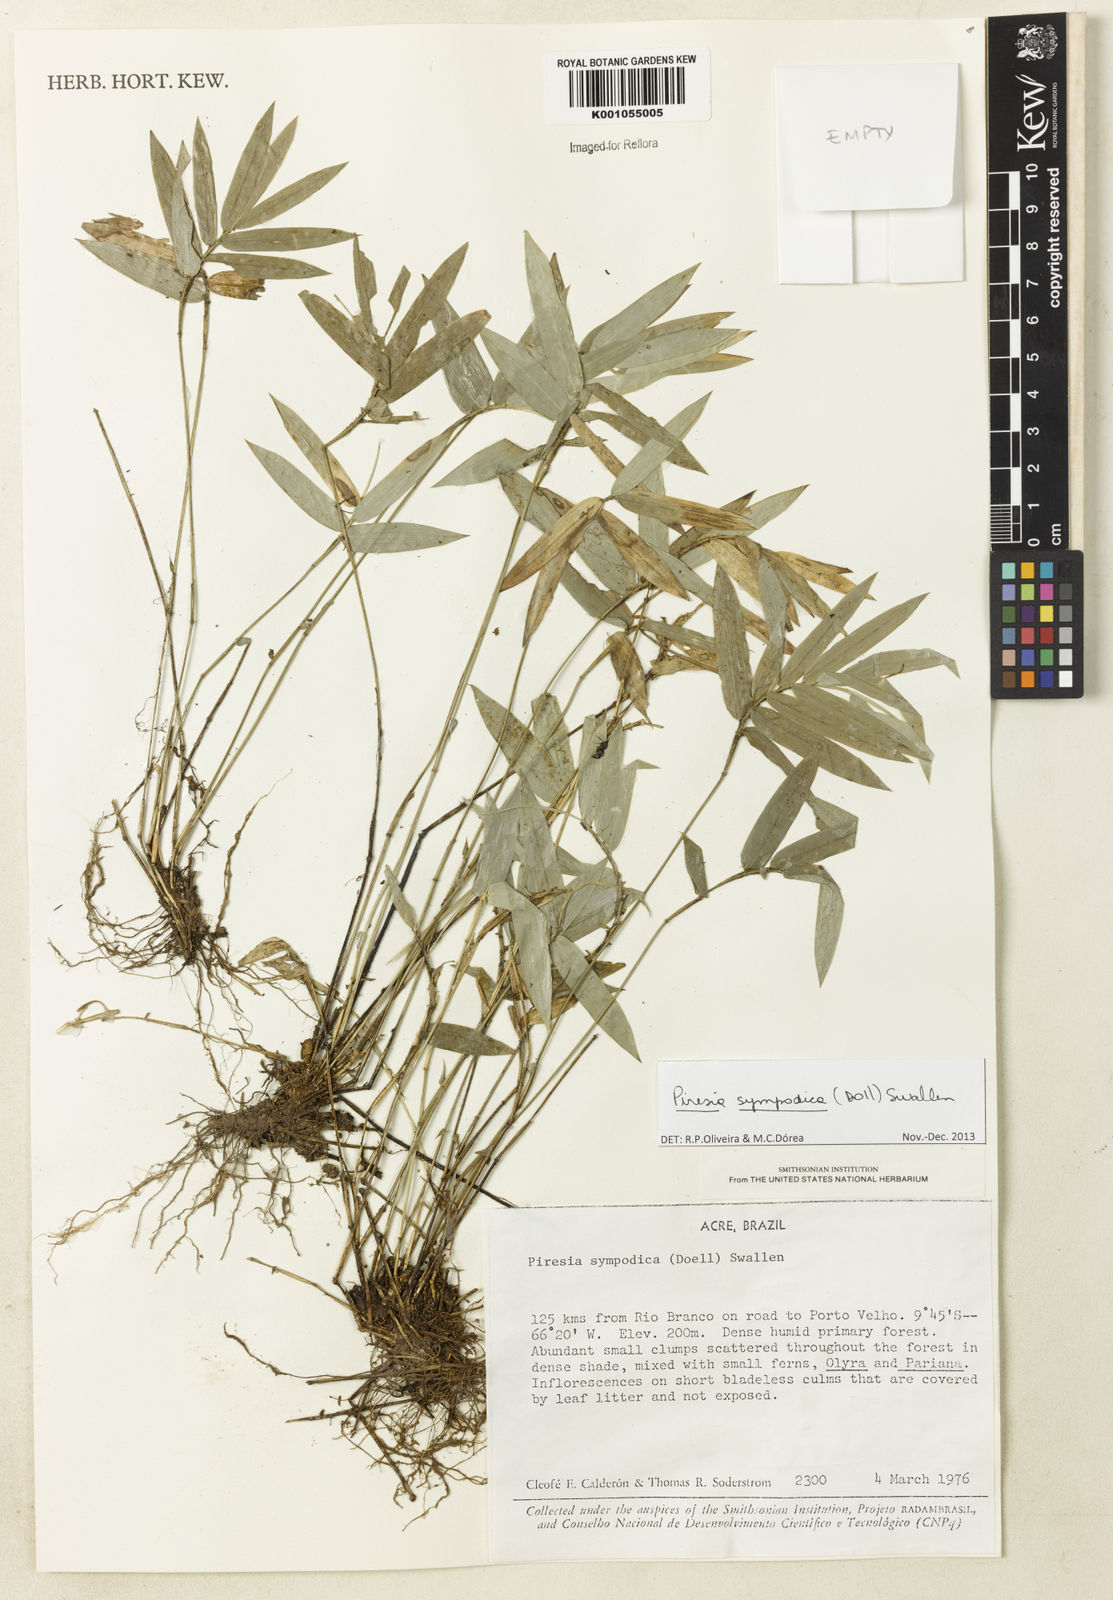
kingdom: Plantae
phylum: Tracheophyta
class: Liliopsida
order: Poales
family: Poaceae
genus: Piresia
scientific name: Piresia
